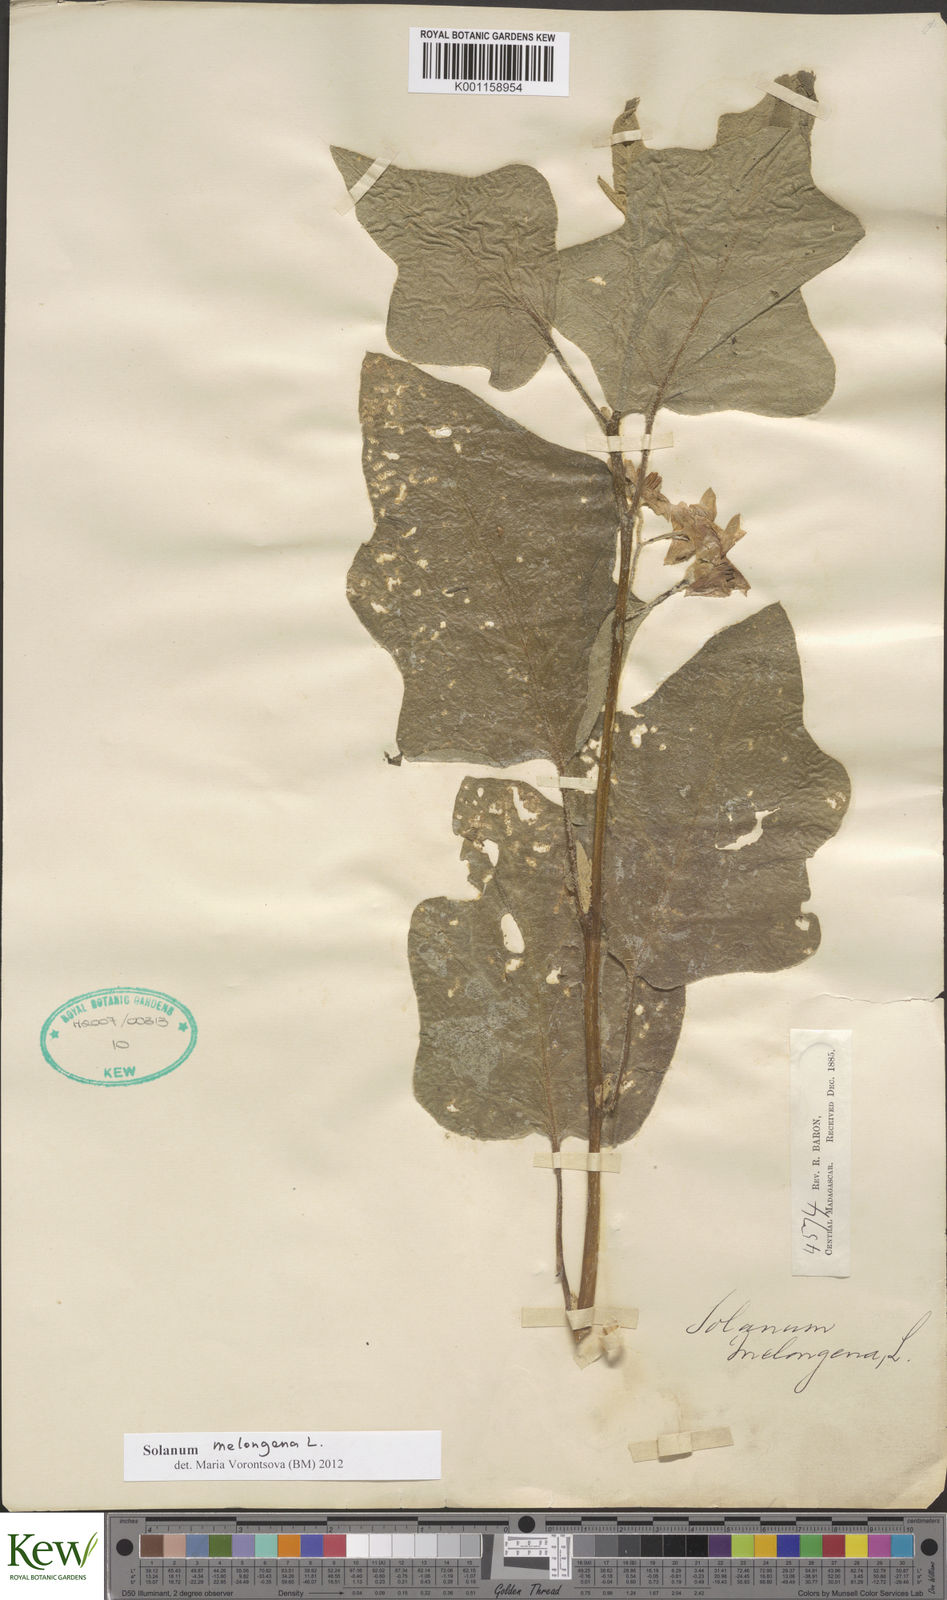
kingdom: Plantae
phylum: Tracheophyta
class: Magnoliopsida
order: Solanales
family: Solanaceae
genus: Solanum
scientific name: Solanum melongena
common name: Eggplant
